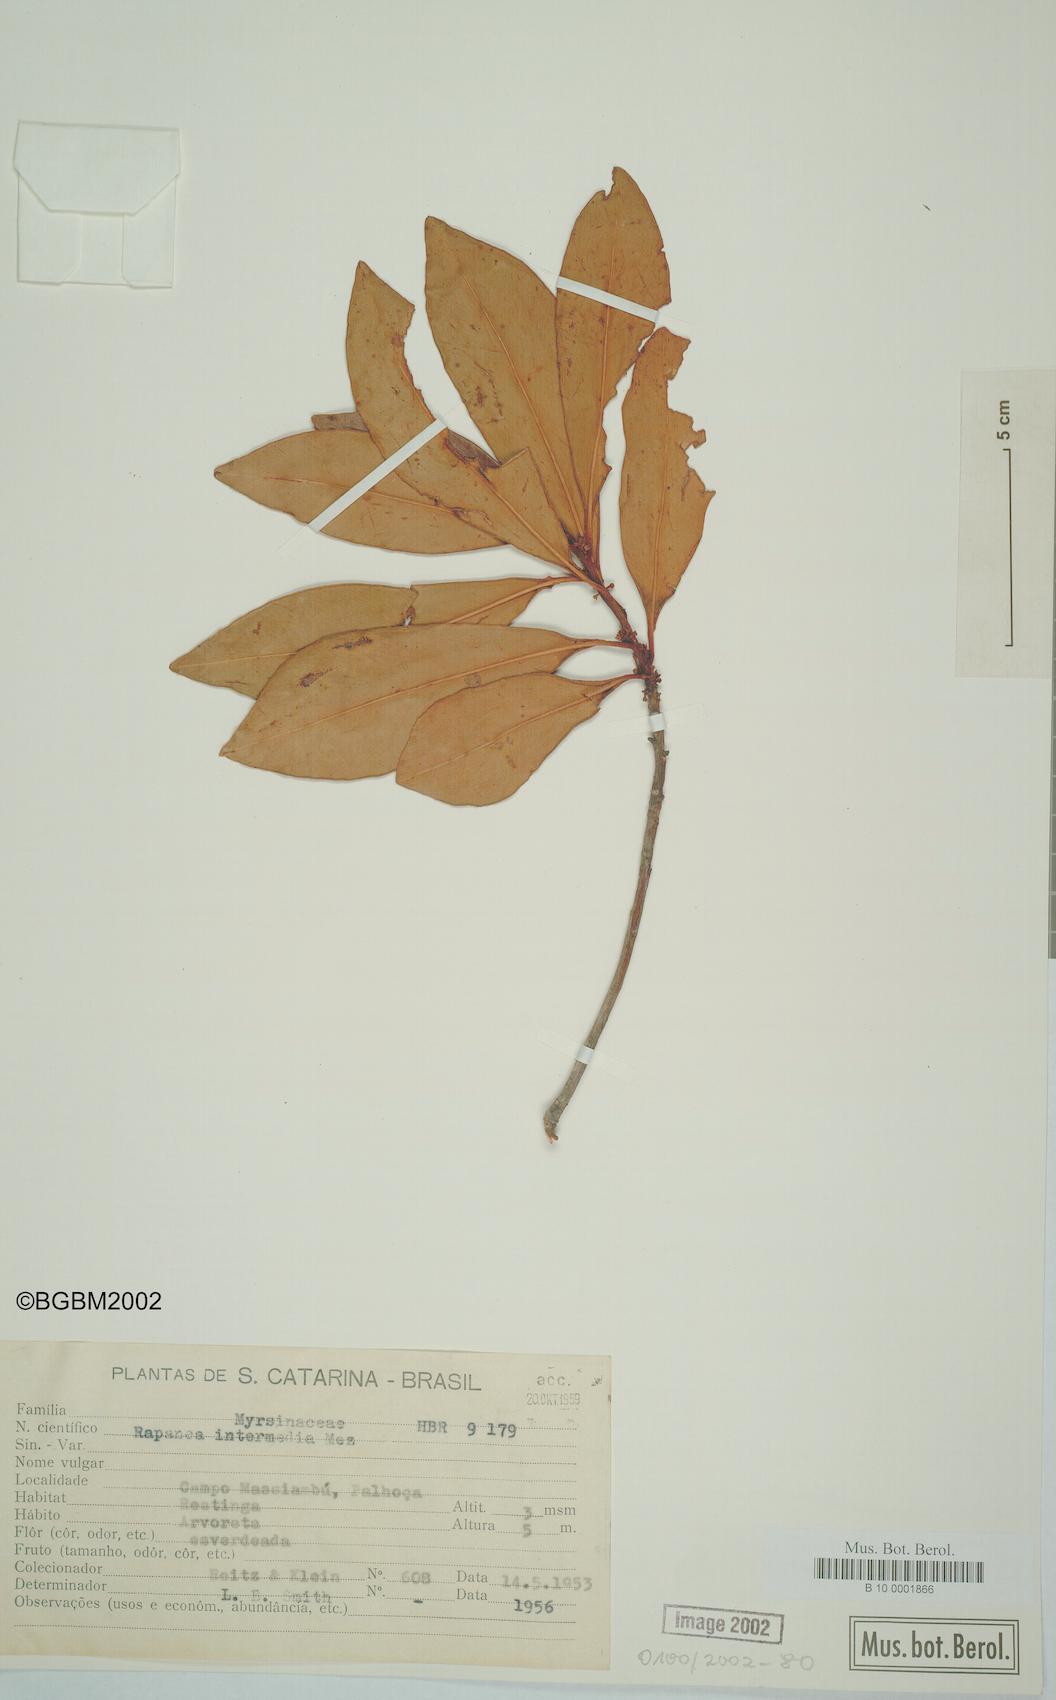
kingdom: Plantae
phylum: Tracheophyta
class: Magnoliopsida
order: Ericales
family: Primulaceae
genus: Myrsine
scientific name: Myrsine gardneriana
